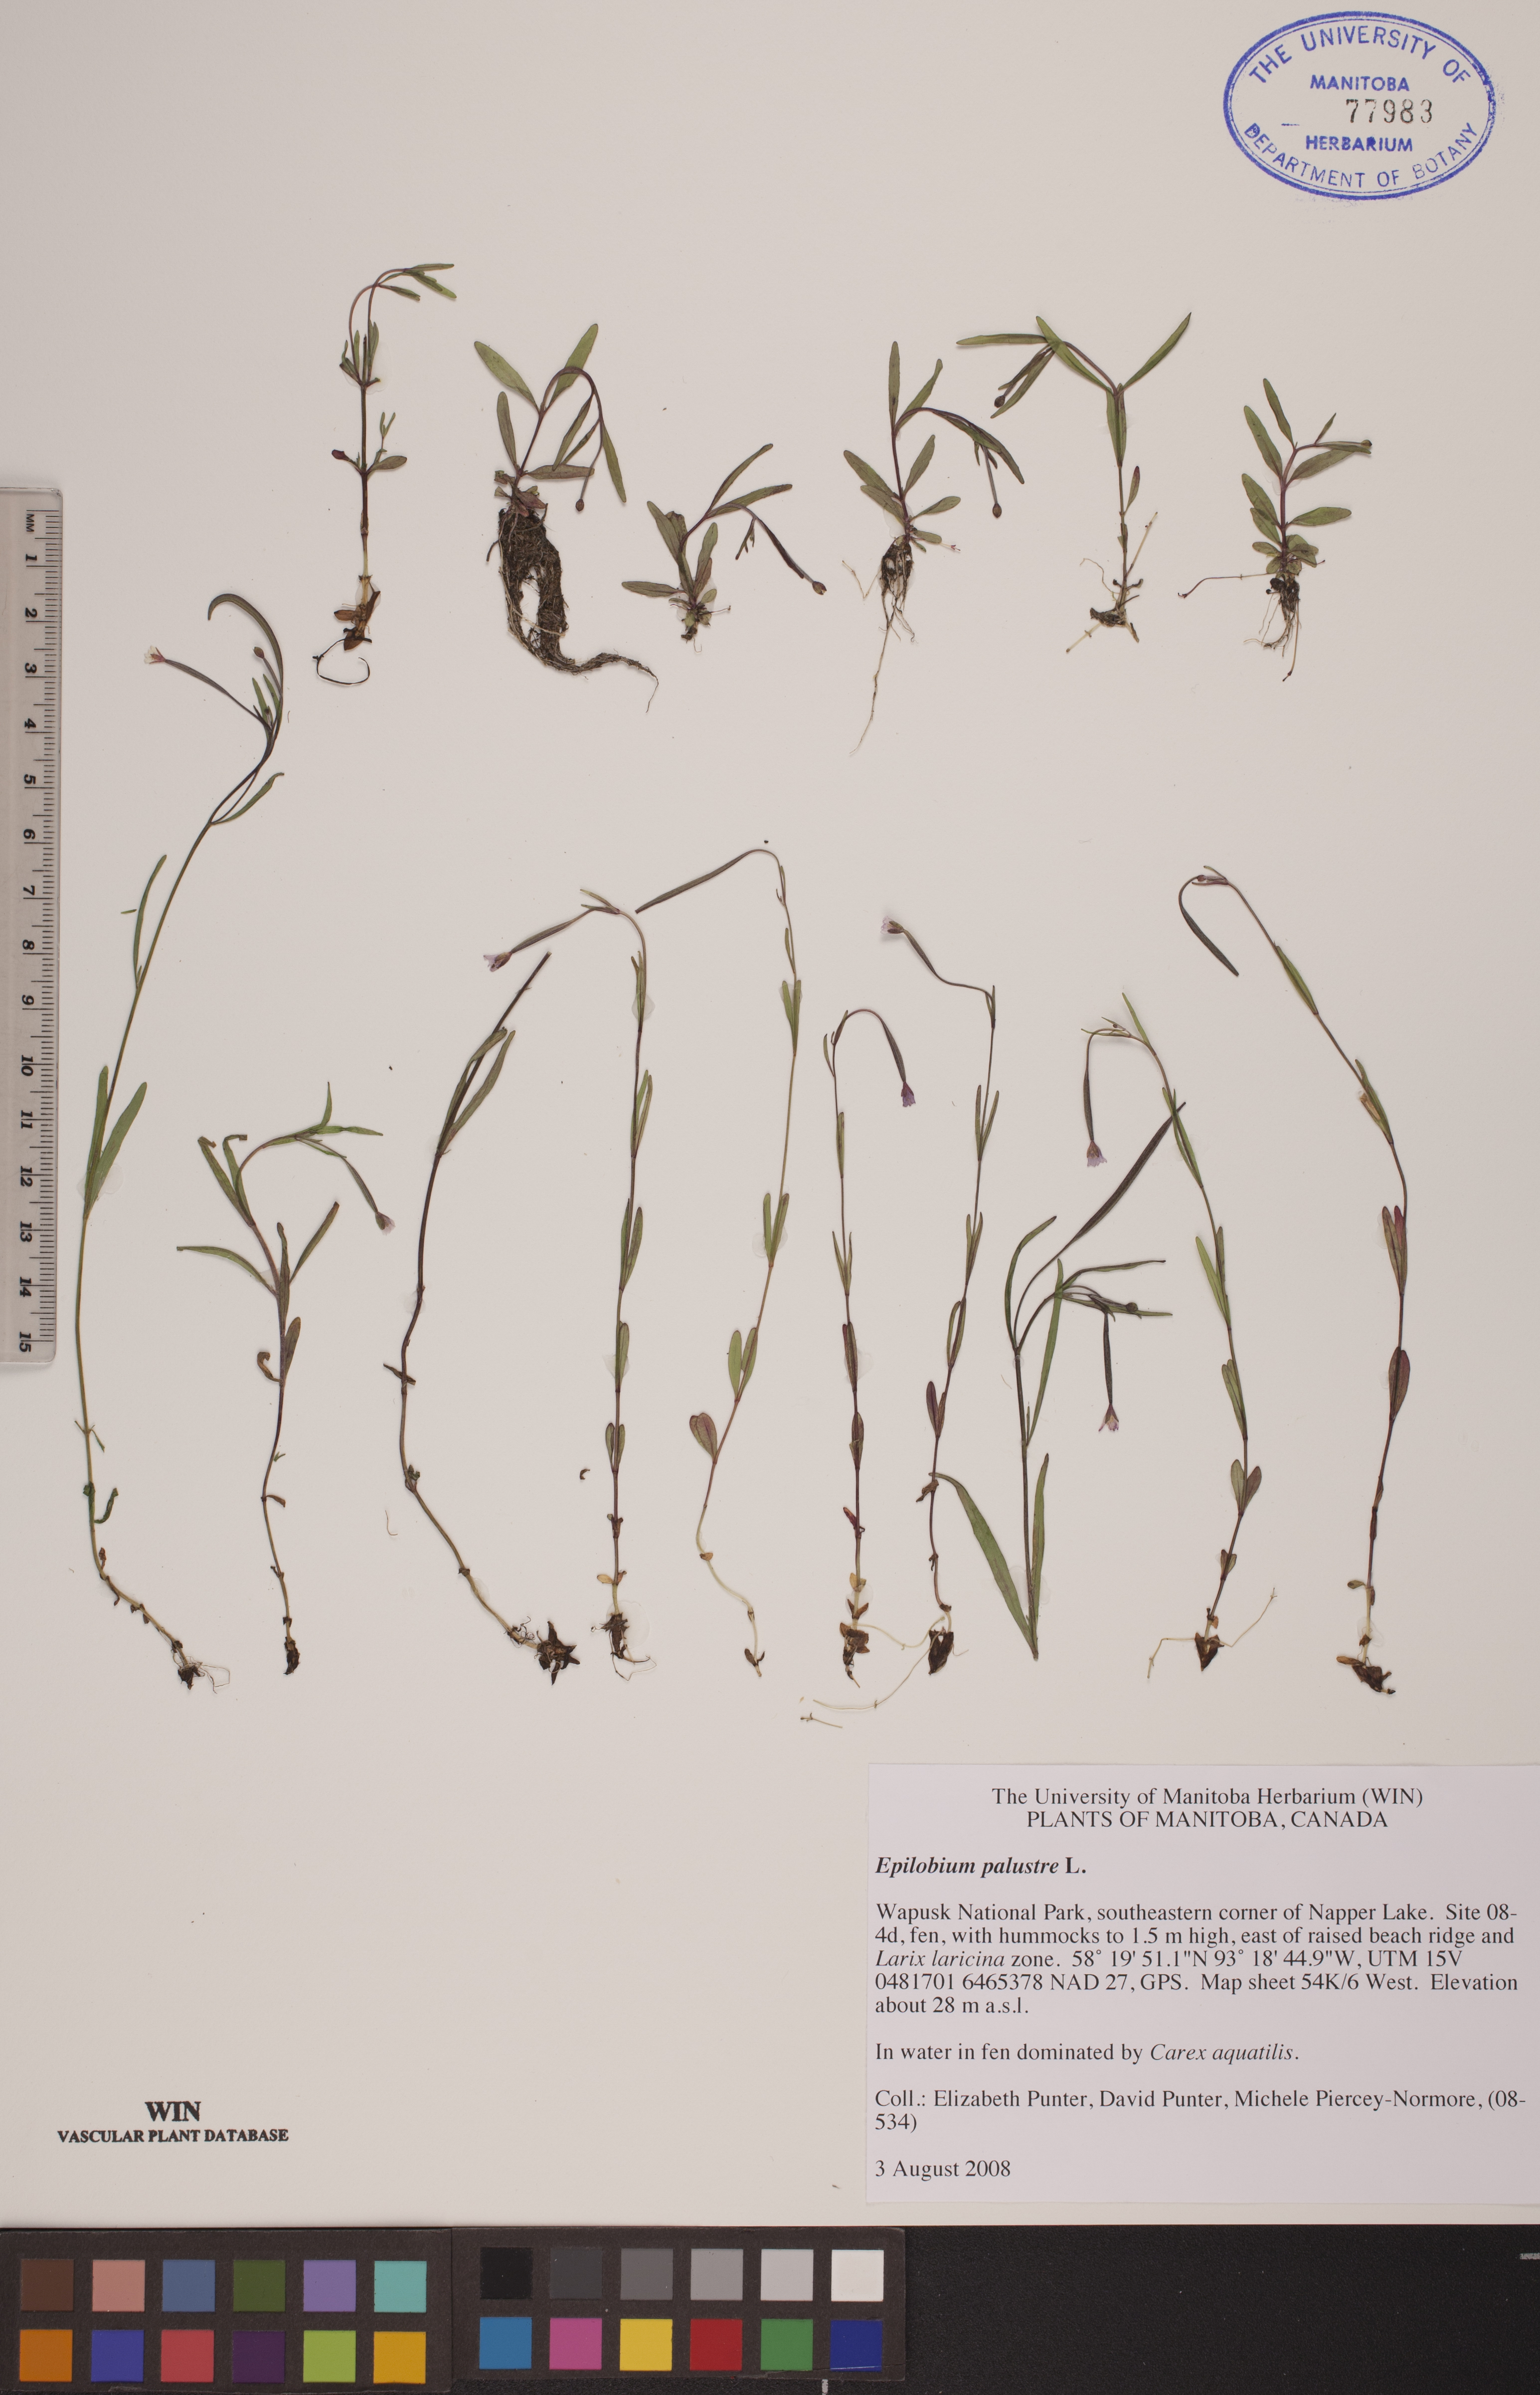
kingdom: Plantae
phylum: Tracheophyta
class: Magnoliopsida
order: Myrtales
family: Onagraceae
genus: Epilobium
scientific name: Epilobium palustre
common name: Marsh willowherb
